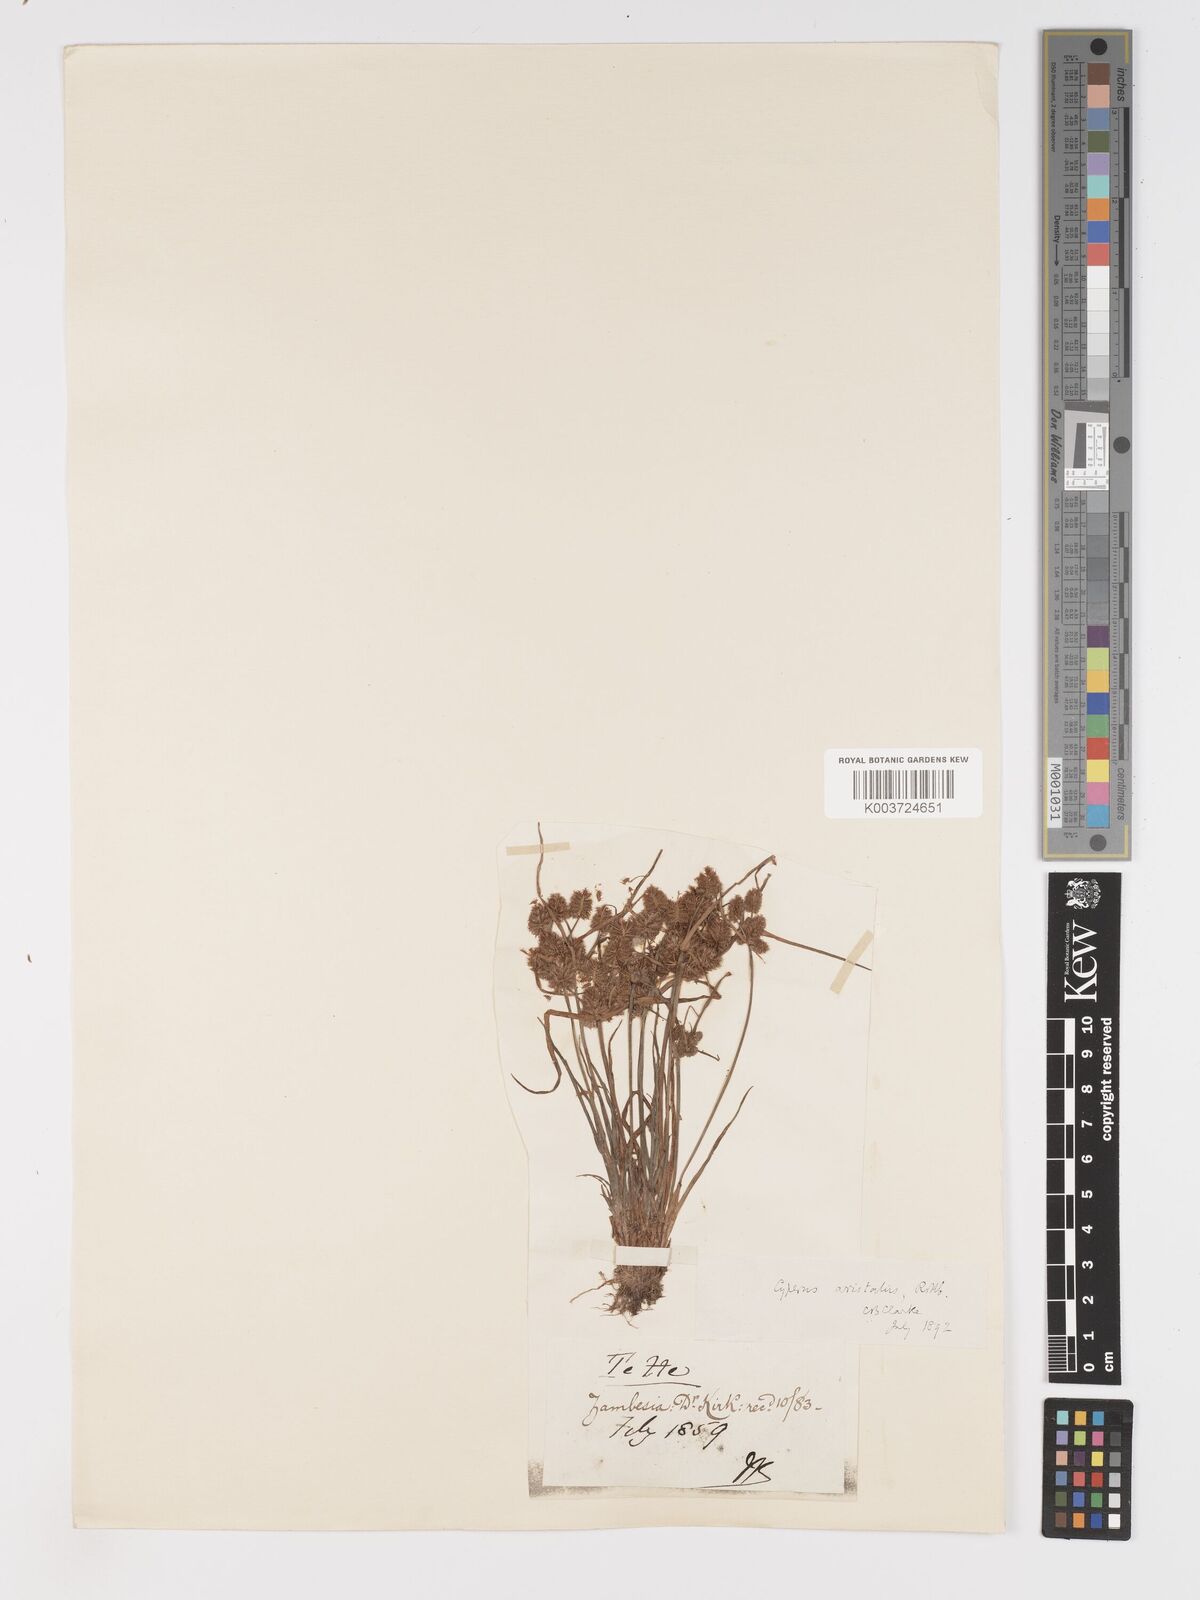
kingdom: Plantae
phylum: Tracheophyta
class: Liliopsida
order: Poales
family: Cyperaceae
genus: Cyperus
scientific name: Cyperus squarrosus
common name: Awned cyperus
